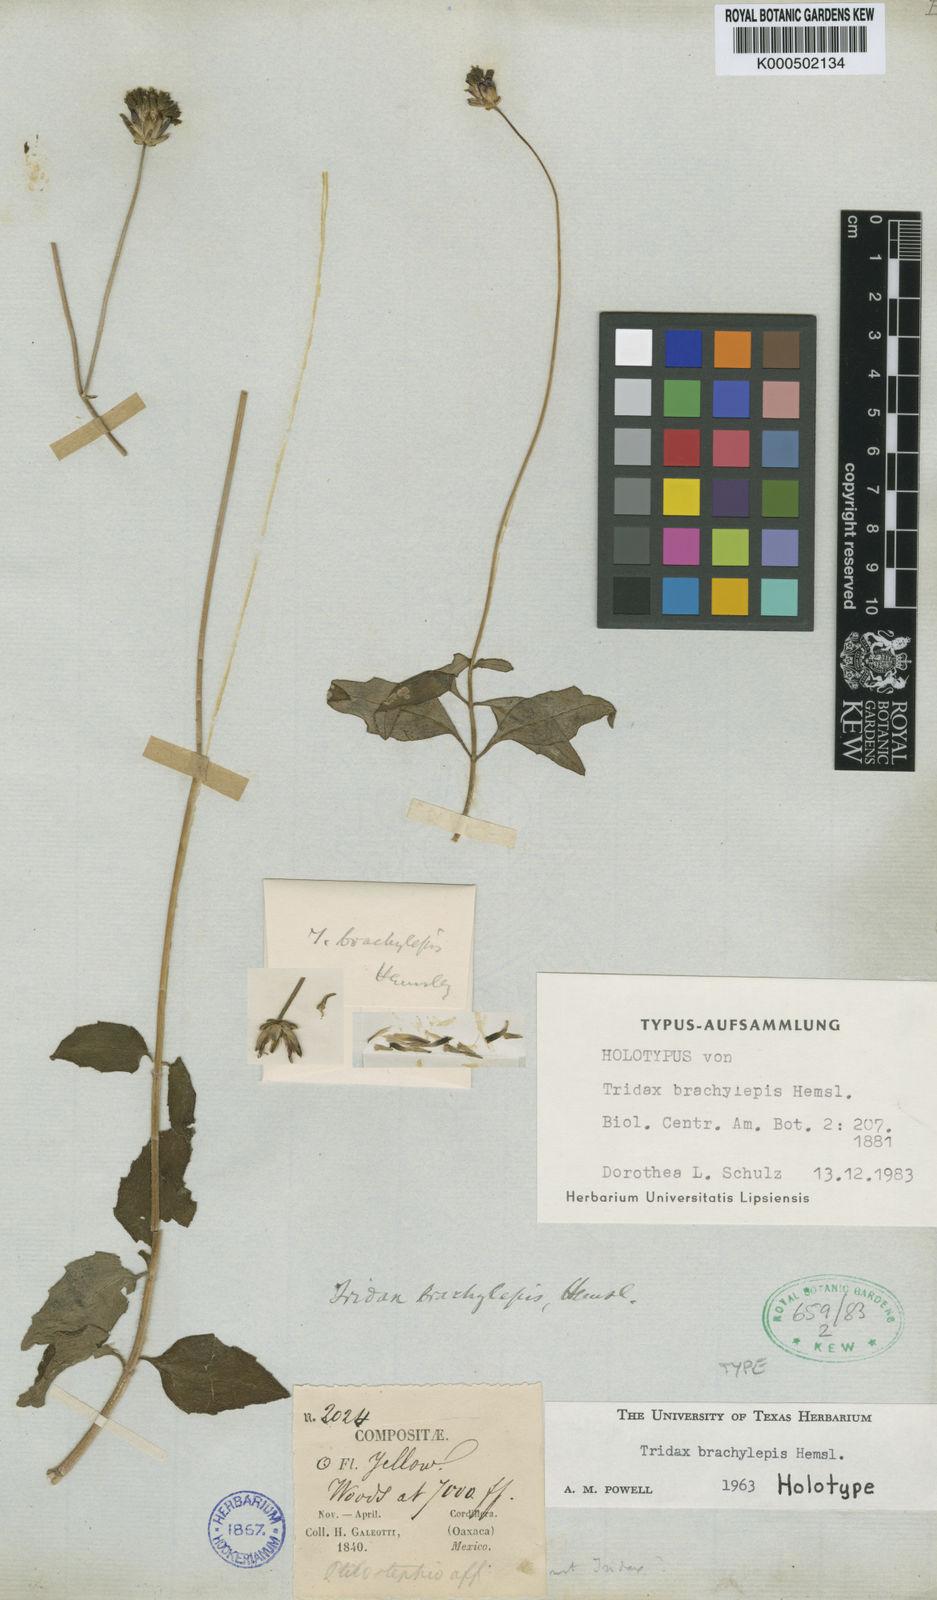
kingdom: Plantae
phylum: Tracheophyta
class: Magnoliopsida
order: Asterales
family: Asteraceae
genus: Tridax
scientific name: Tridax brachylepis
